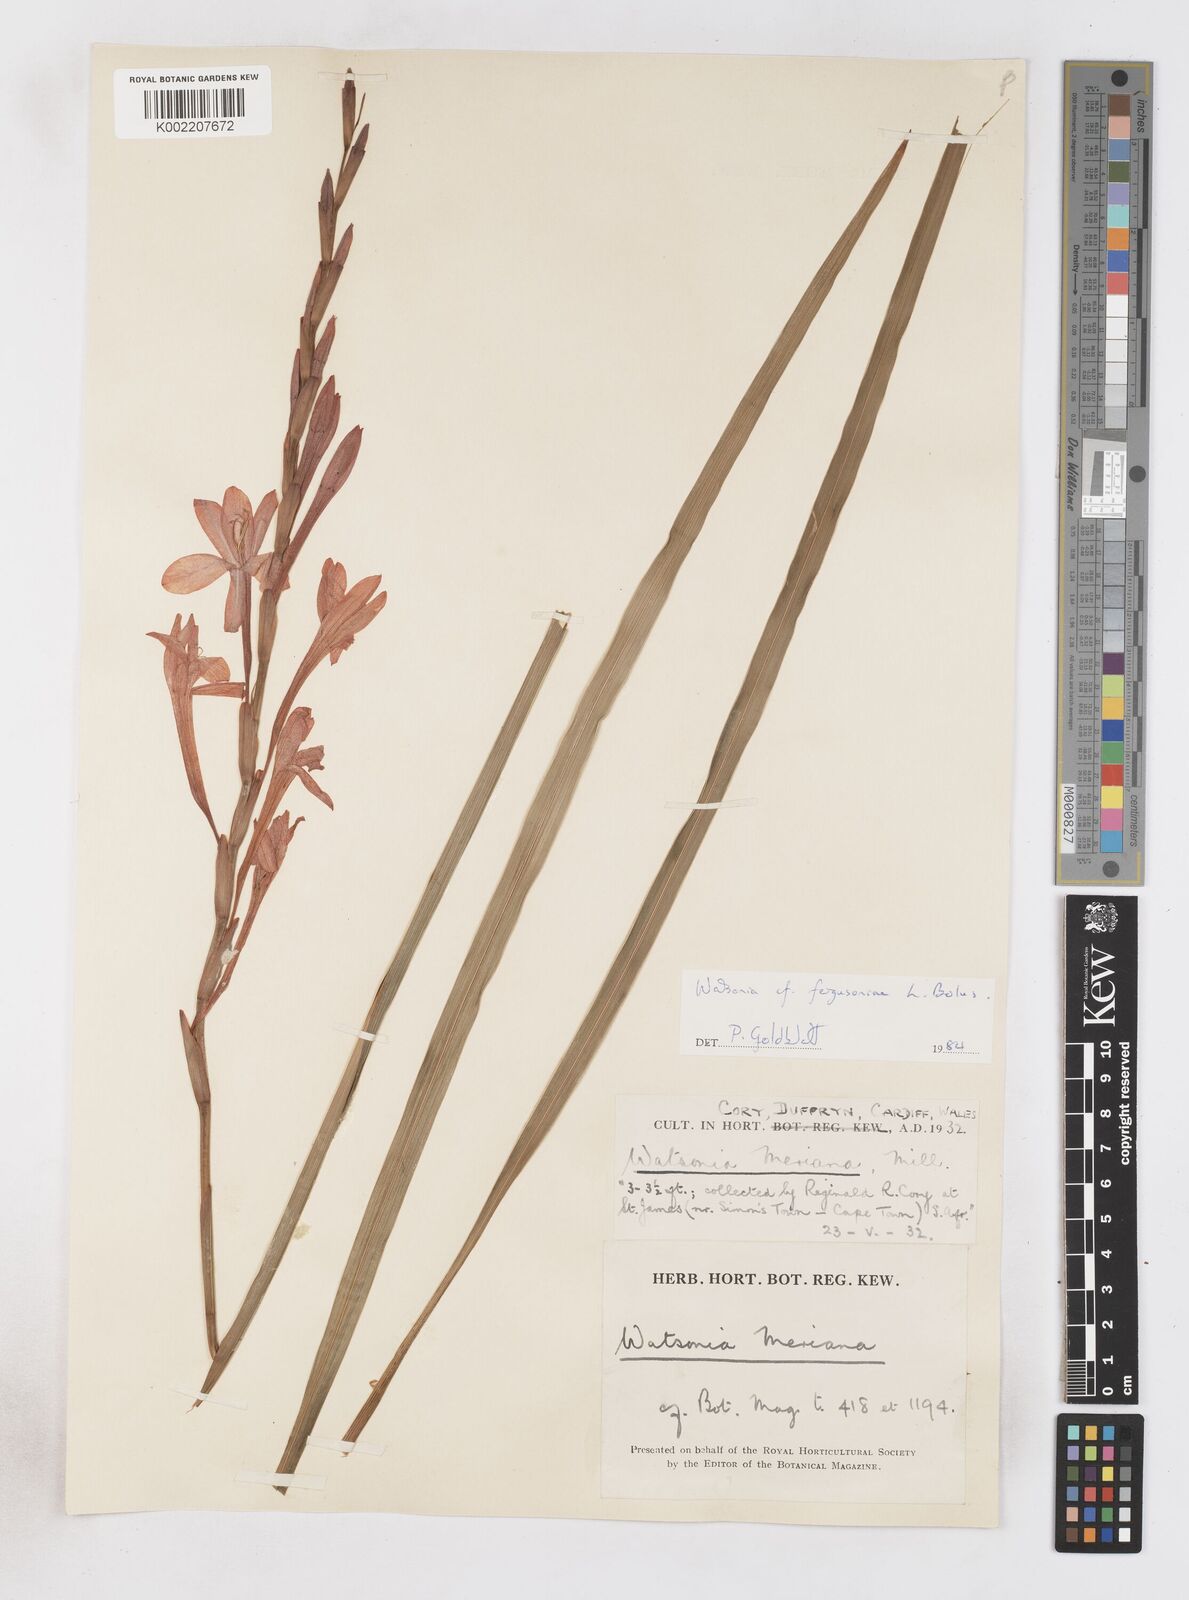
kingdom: Plantae
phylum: Tracheophyta
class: Liliopsida
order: Asparagales
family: Iridaceae
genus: Watsonia
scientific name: Watsonia fergusoniae
